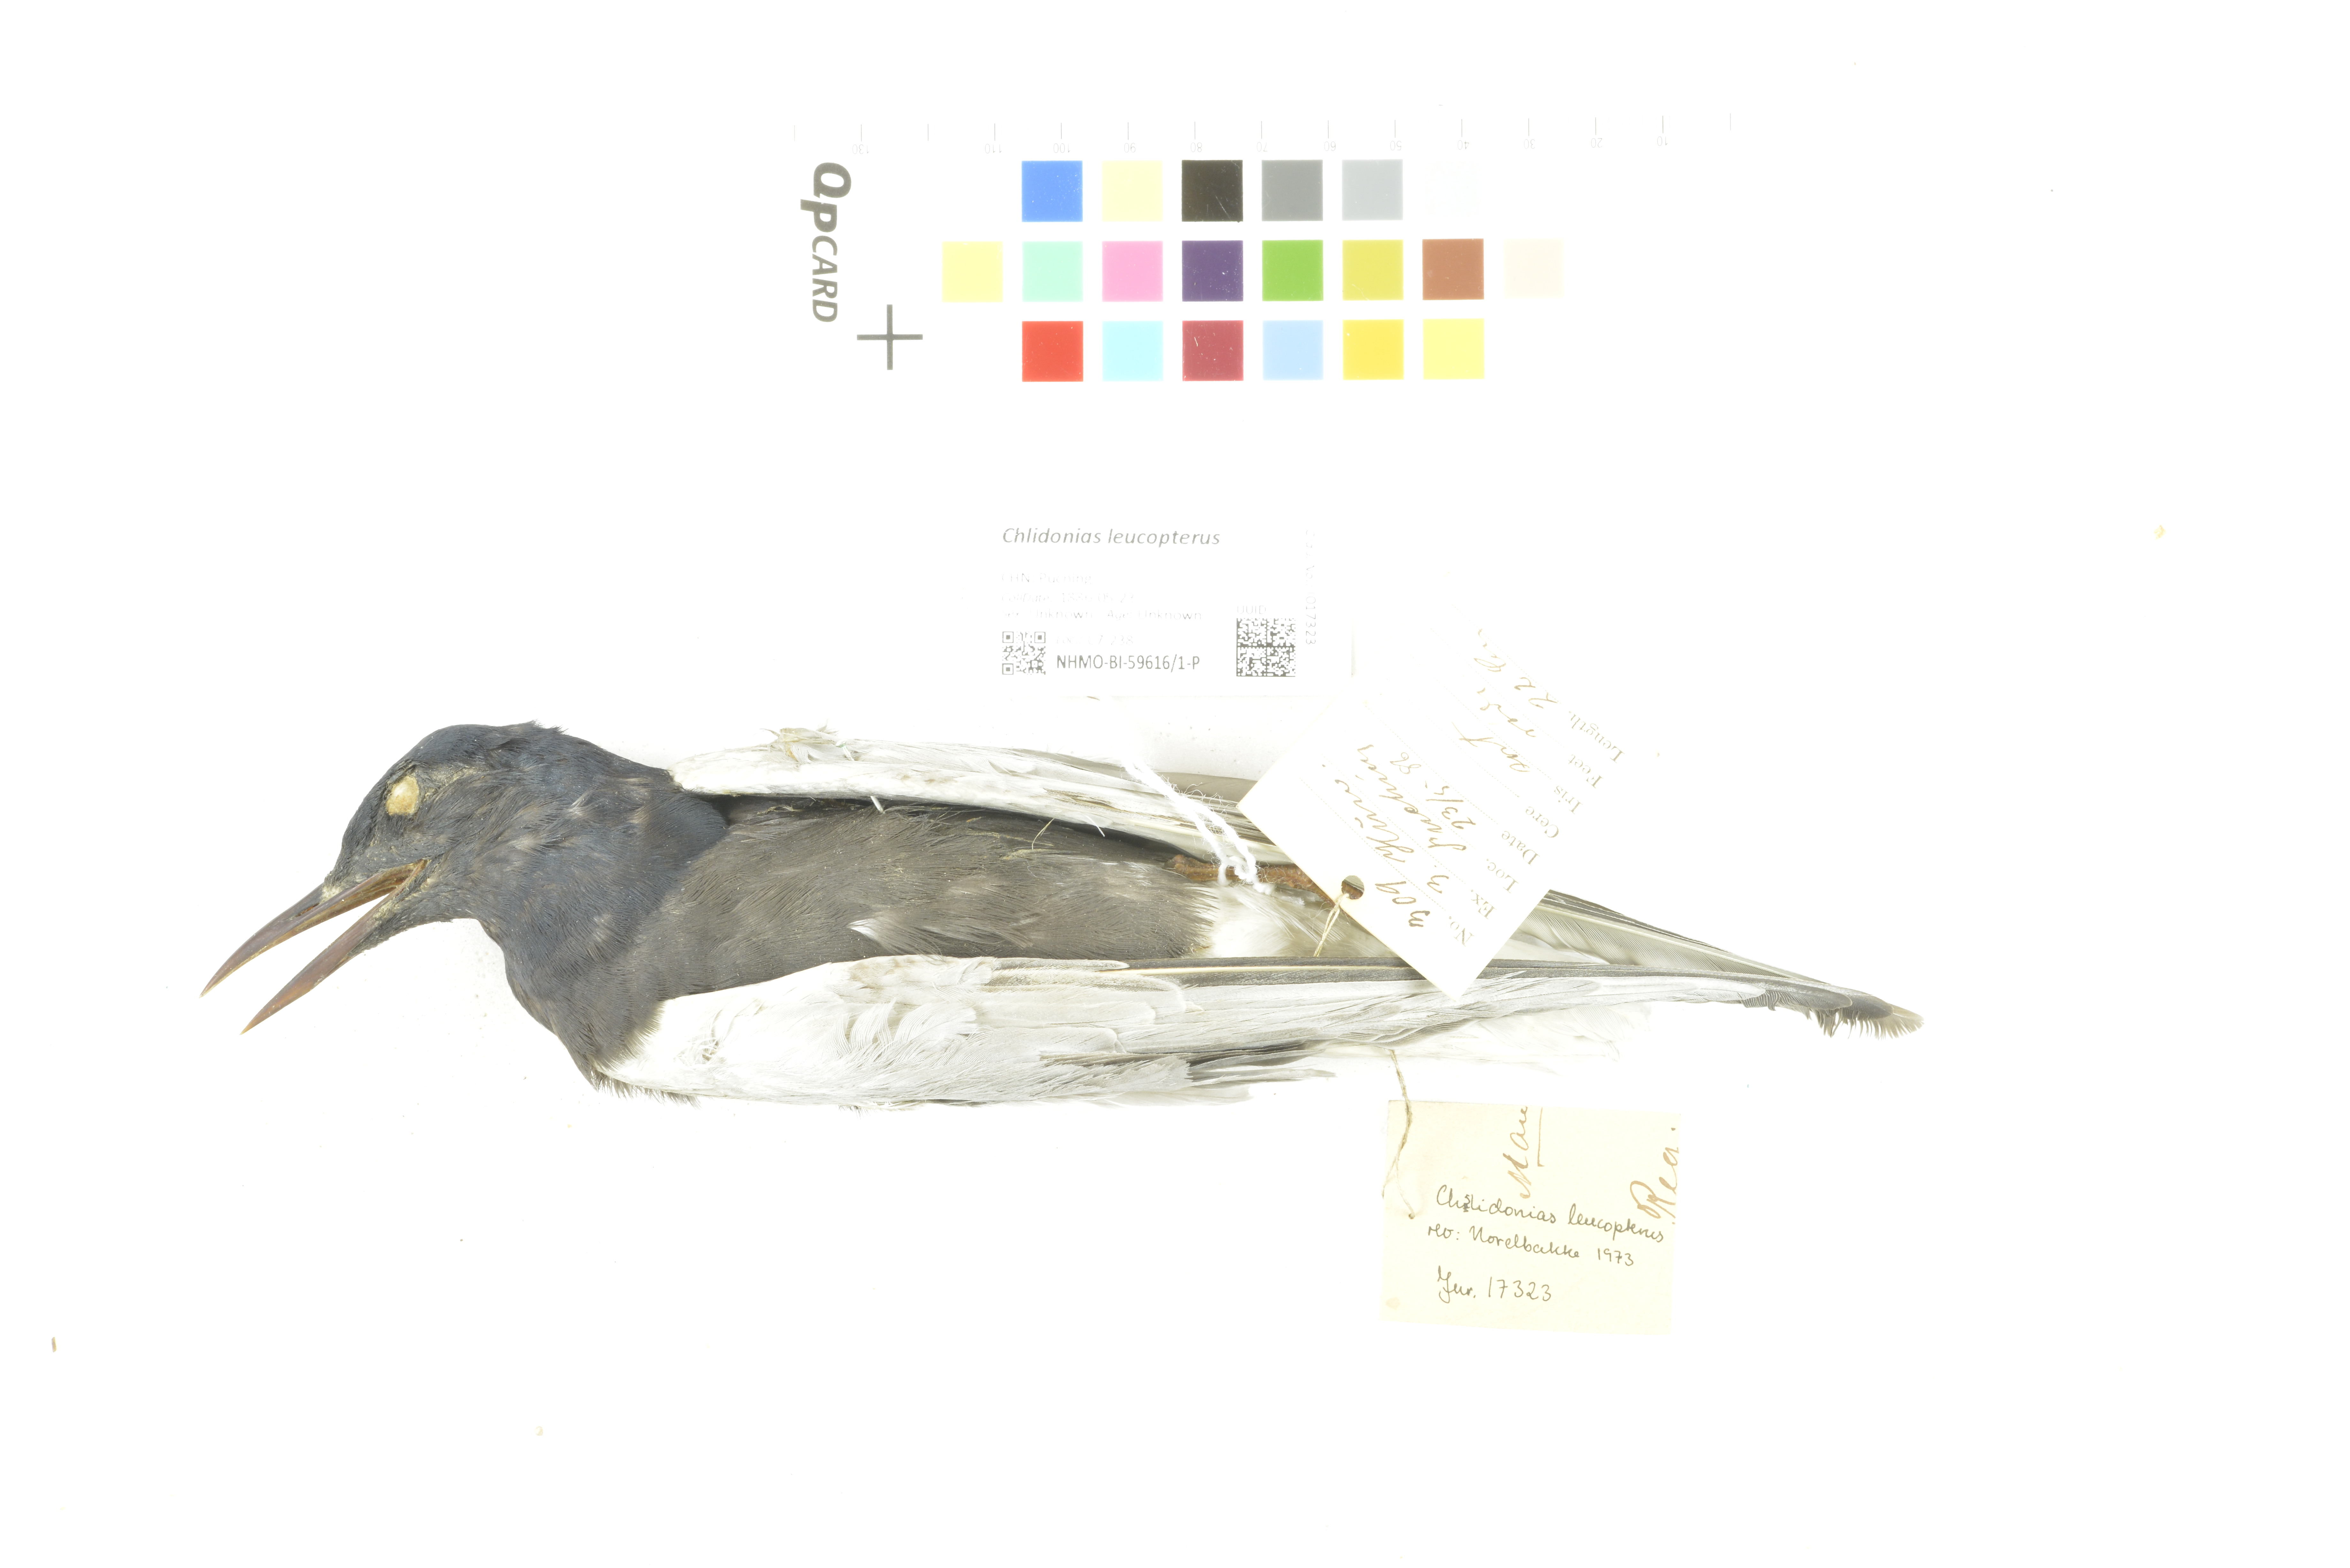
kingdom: Animalia
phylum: Chordata
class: Aves
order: Charadriiformes
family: Laridae
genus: Chlidonias
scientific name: Chlidonias leucopterus
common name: White-winged tern
